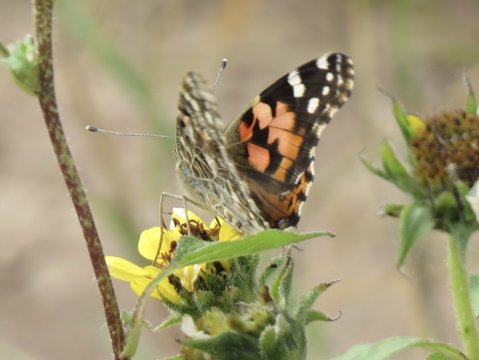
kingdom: Animalia
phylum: Arthropoda
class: Insecta
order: Lepidoptera
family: Nymphalidae
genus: Vanessa
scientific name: Vanessa cardui
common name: Painted Lady
